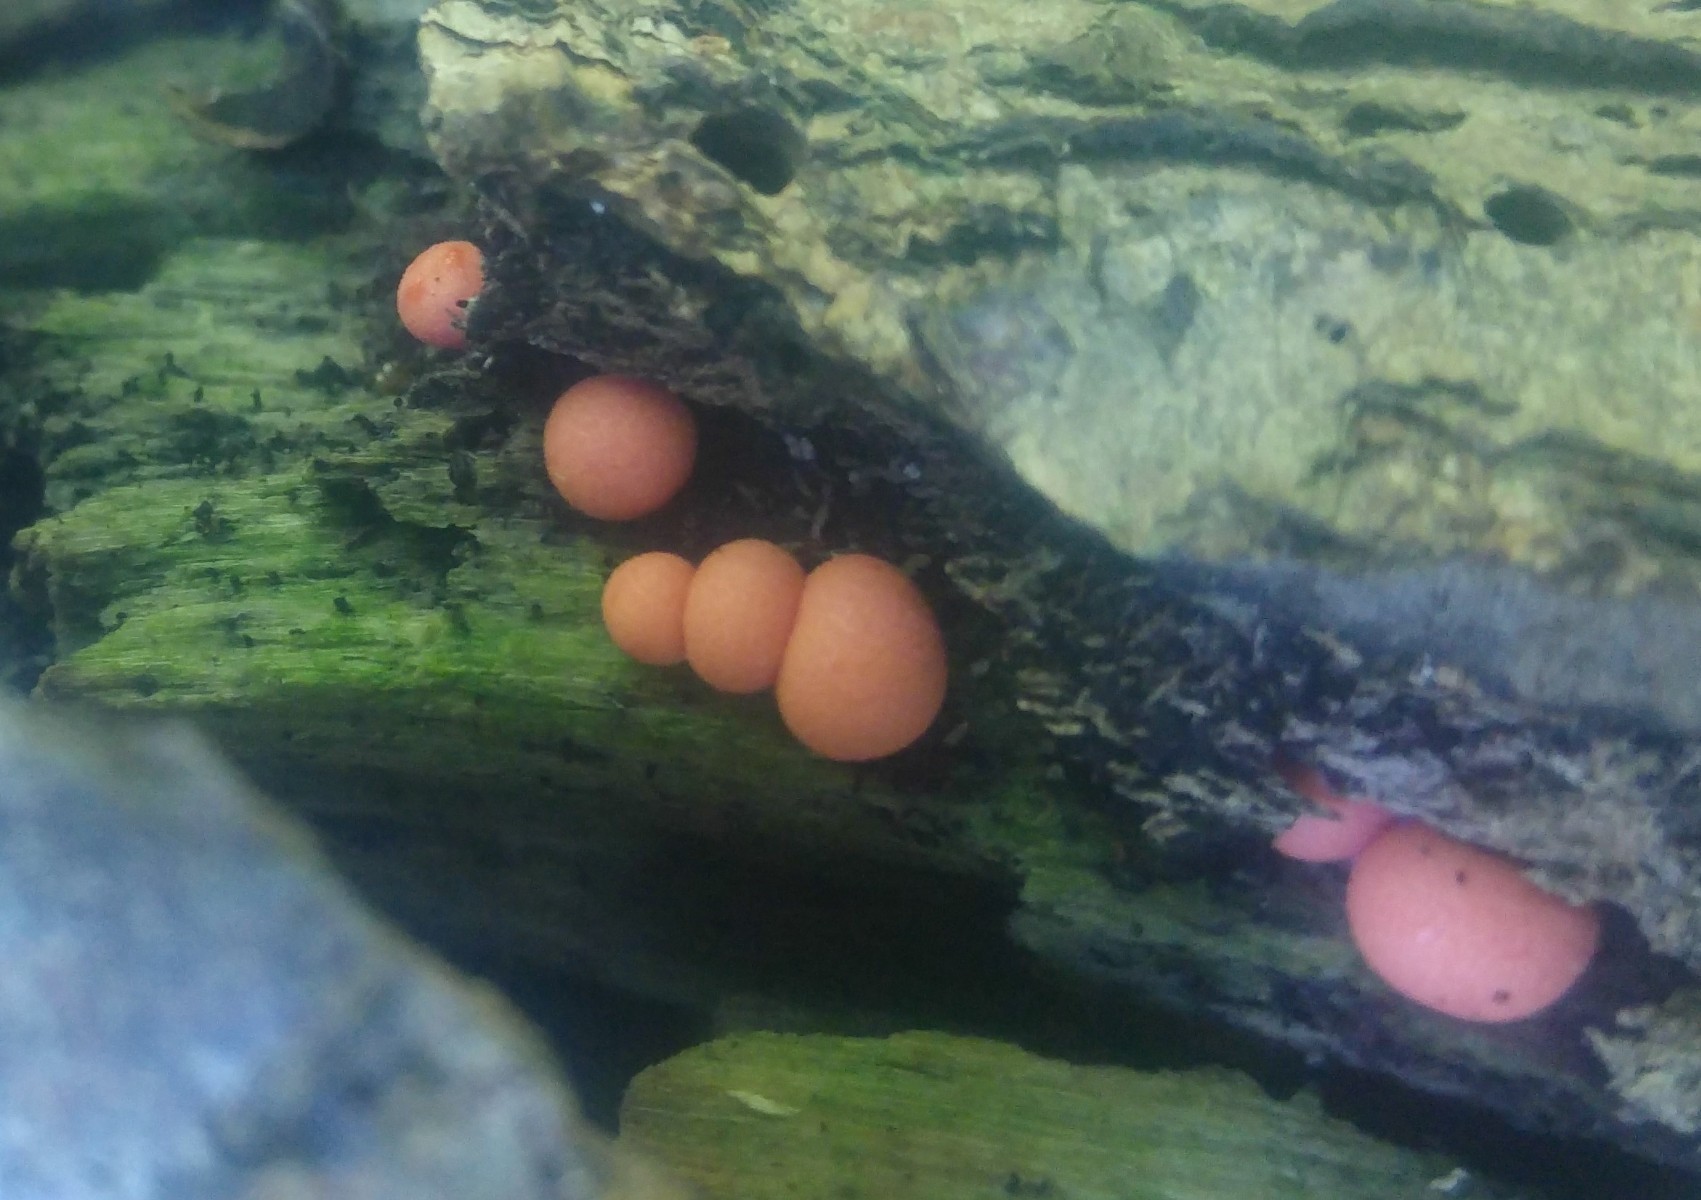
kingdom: Protozoa
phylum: Mycetozoa
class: Myxomycetes
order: Cribrariales
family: Tubiferaceae
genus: Lycogala
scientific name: Lycogala epidendrum
